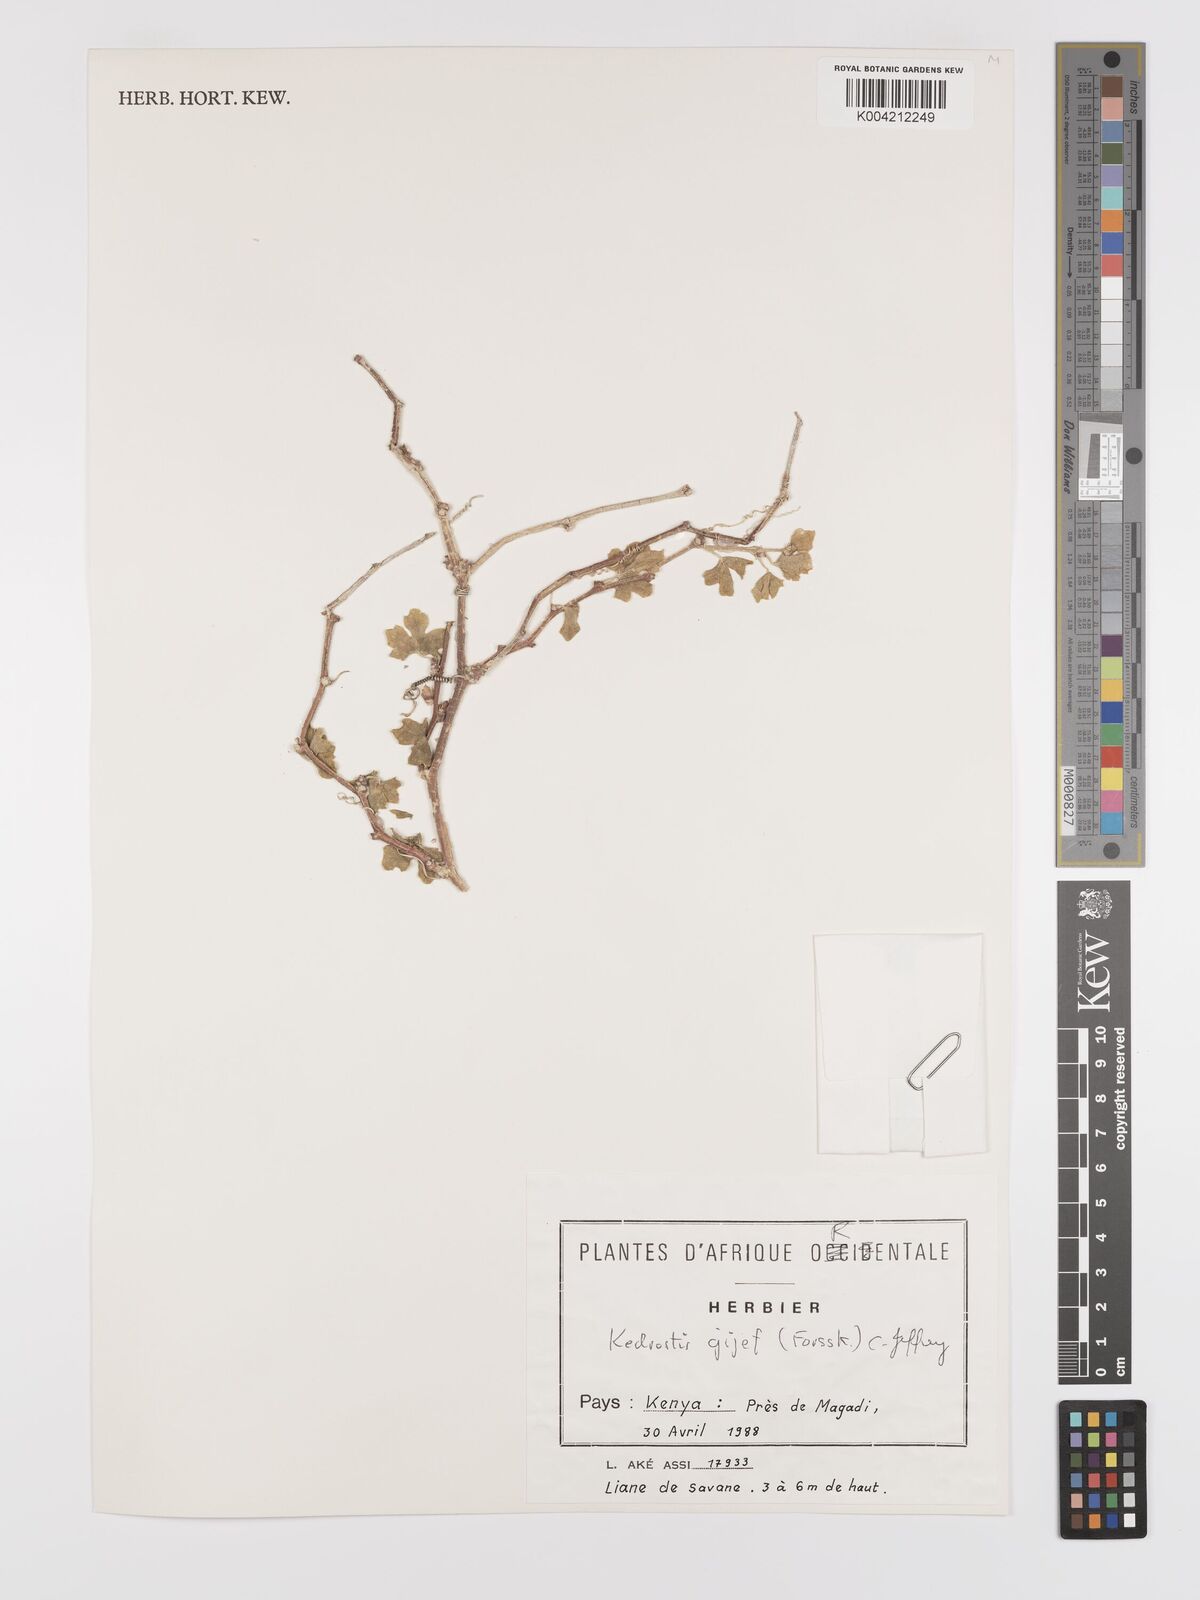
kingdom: Plantae
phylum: Tracheophyta
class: Magnoliopsida
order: Cucurbitales
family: Cucurbitaceae
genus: Kedrostis
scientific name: Kedrostis gijef
